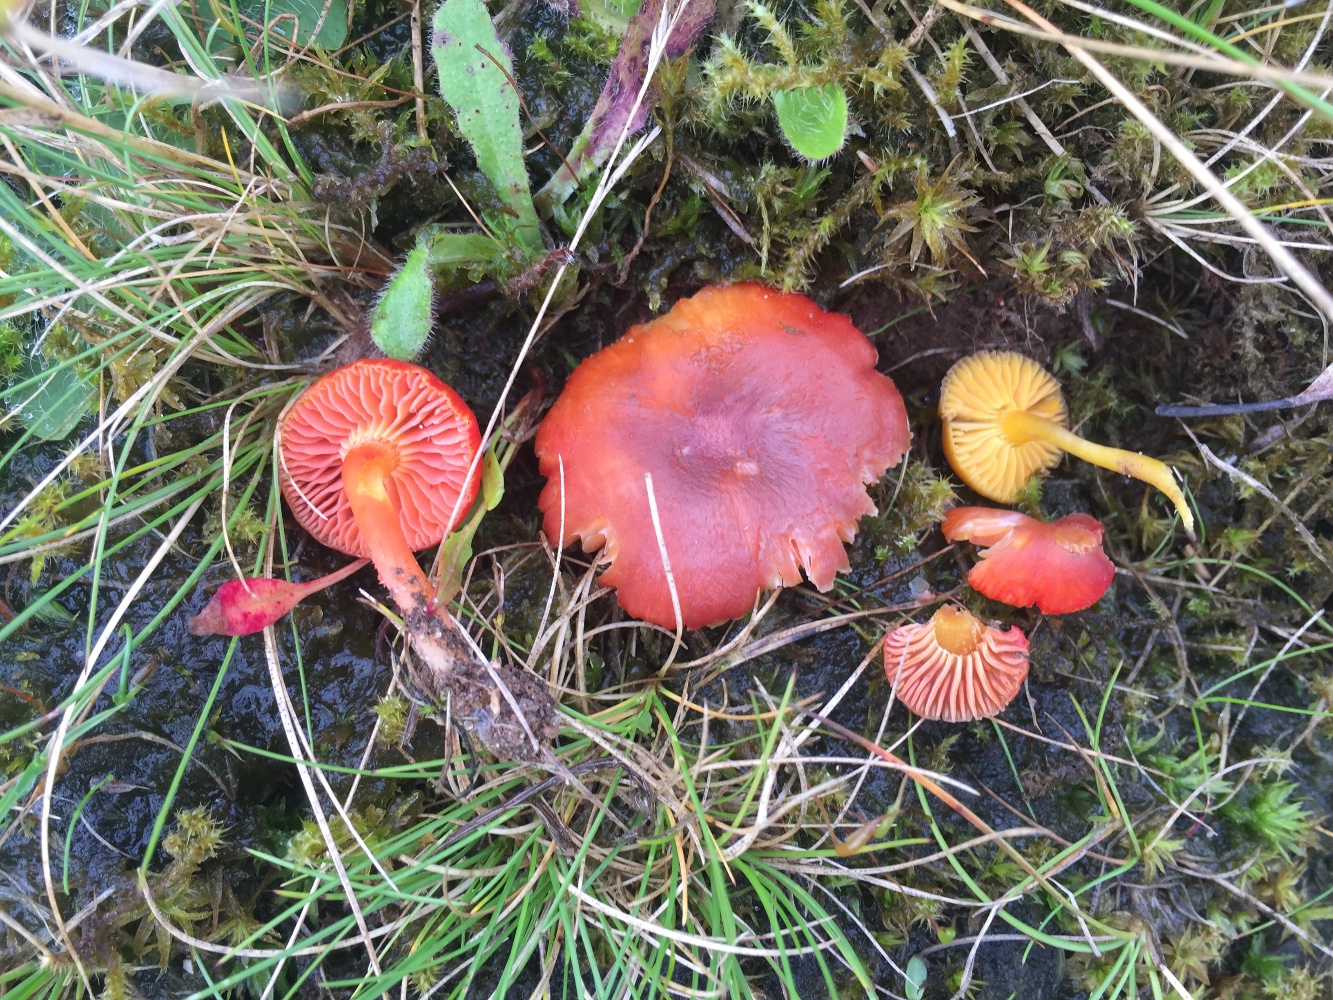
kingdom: Fungi
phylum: Basidiomycota
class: Agaricomycetes
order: Agaricales
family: Hygrophoraceae
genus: Hygrocybe
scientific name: Hygrocybe phaeococcinea
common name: sortdugget vokshat
